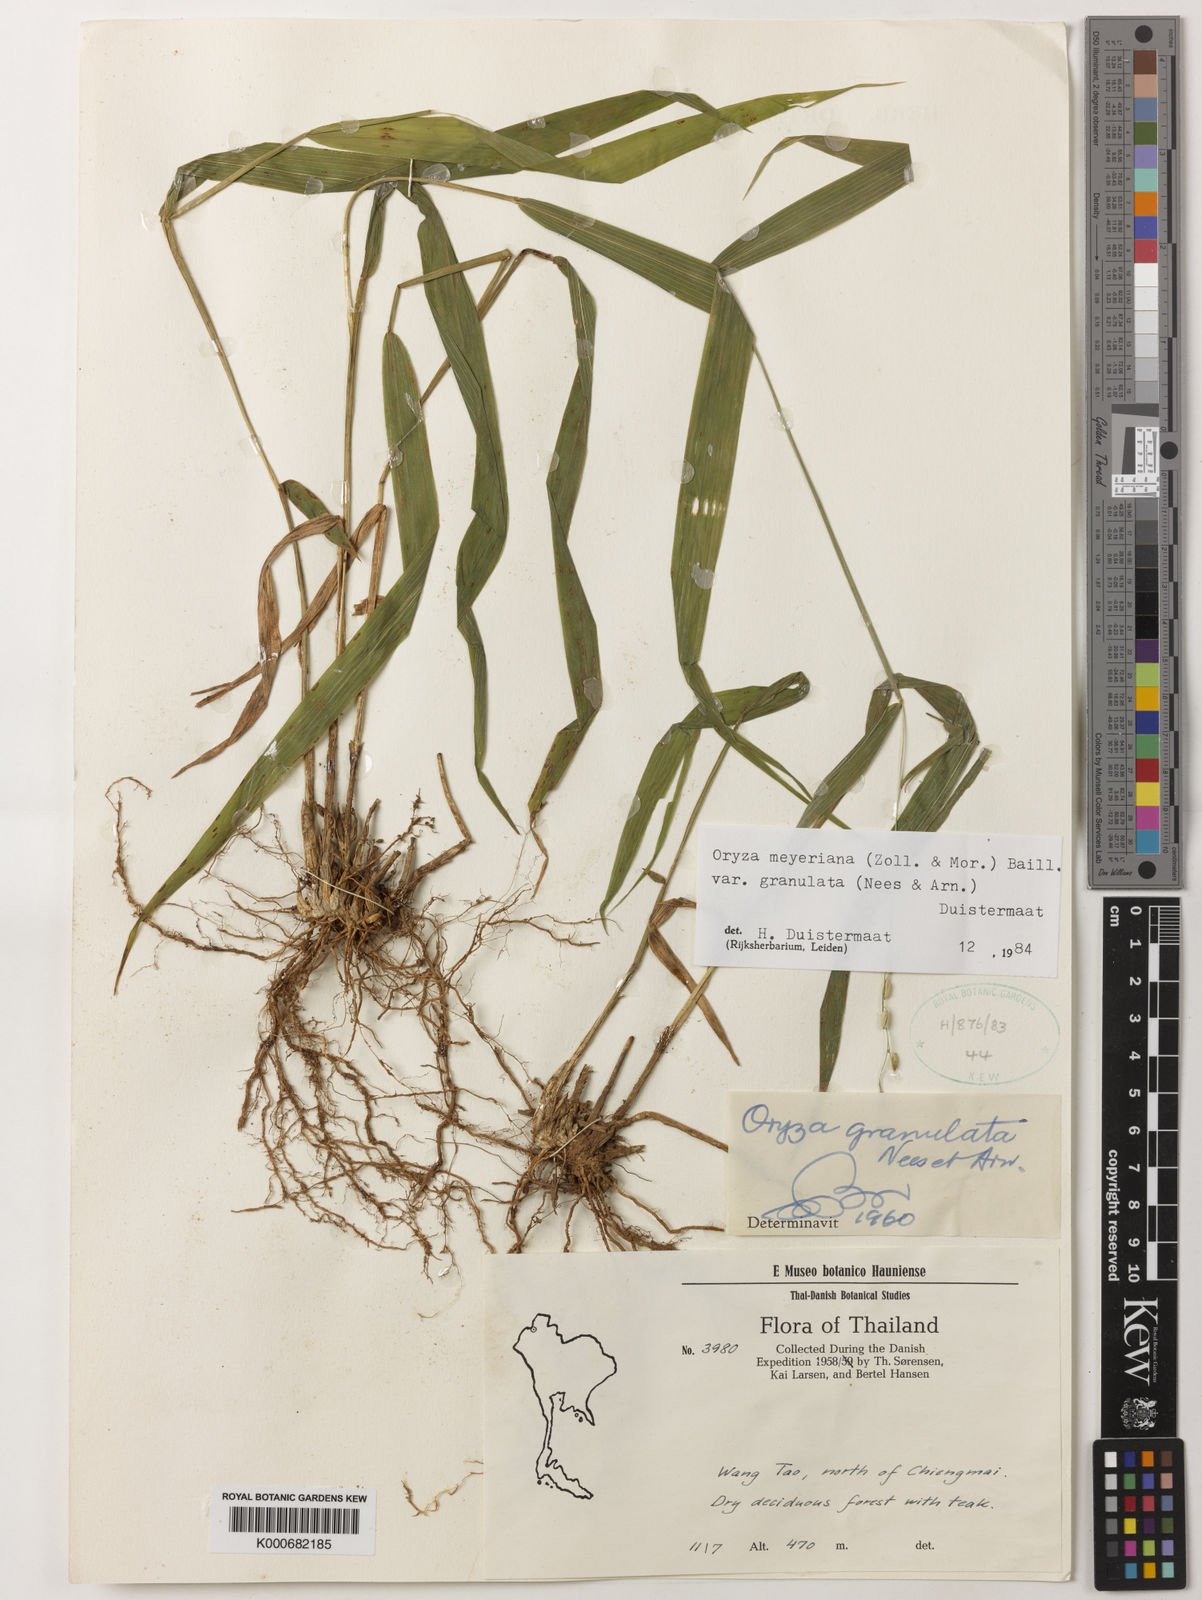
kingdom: Plantae
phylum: Tracheophyta
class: Liliopsida
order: Poales
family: Poaceae
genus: Oryza
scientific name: Oryza meyeriana
